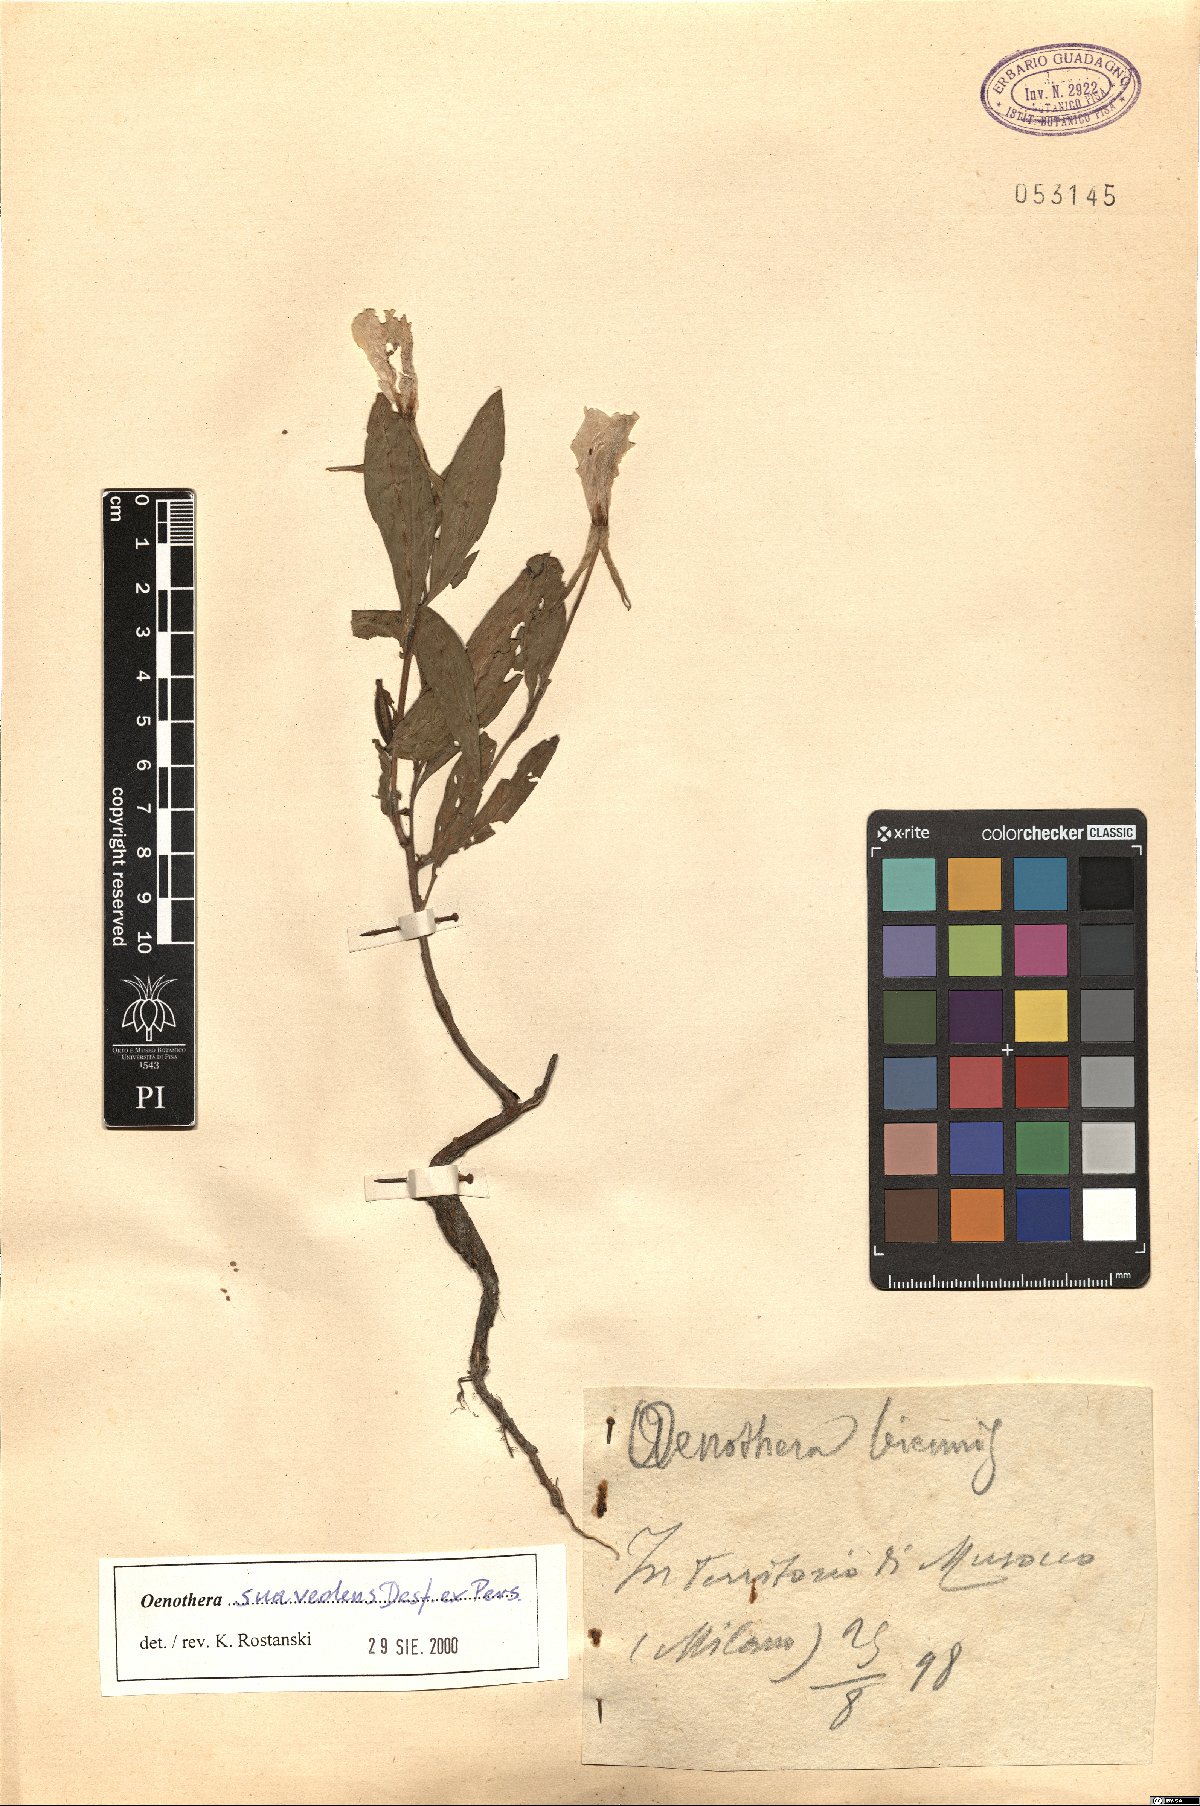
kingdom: Plantae
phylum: Tracheophyta
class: Magnoliopsida
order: Myrtales
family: Onagraceae
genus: Oenothera
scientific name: Oenothera suaveolens
